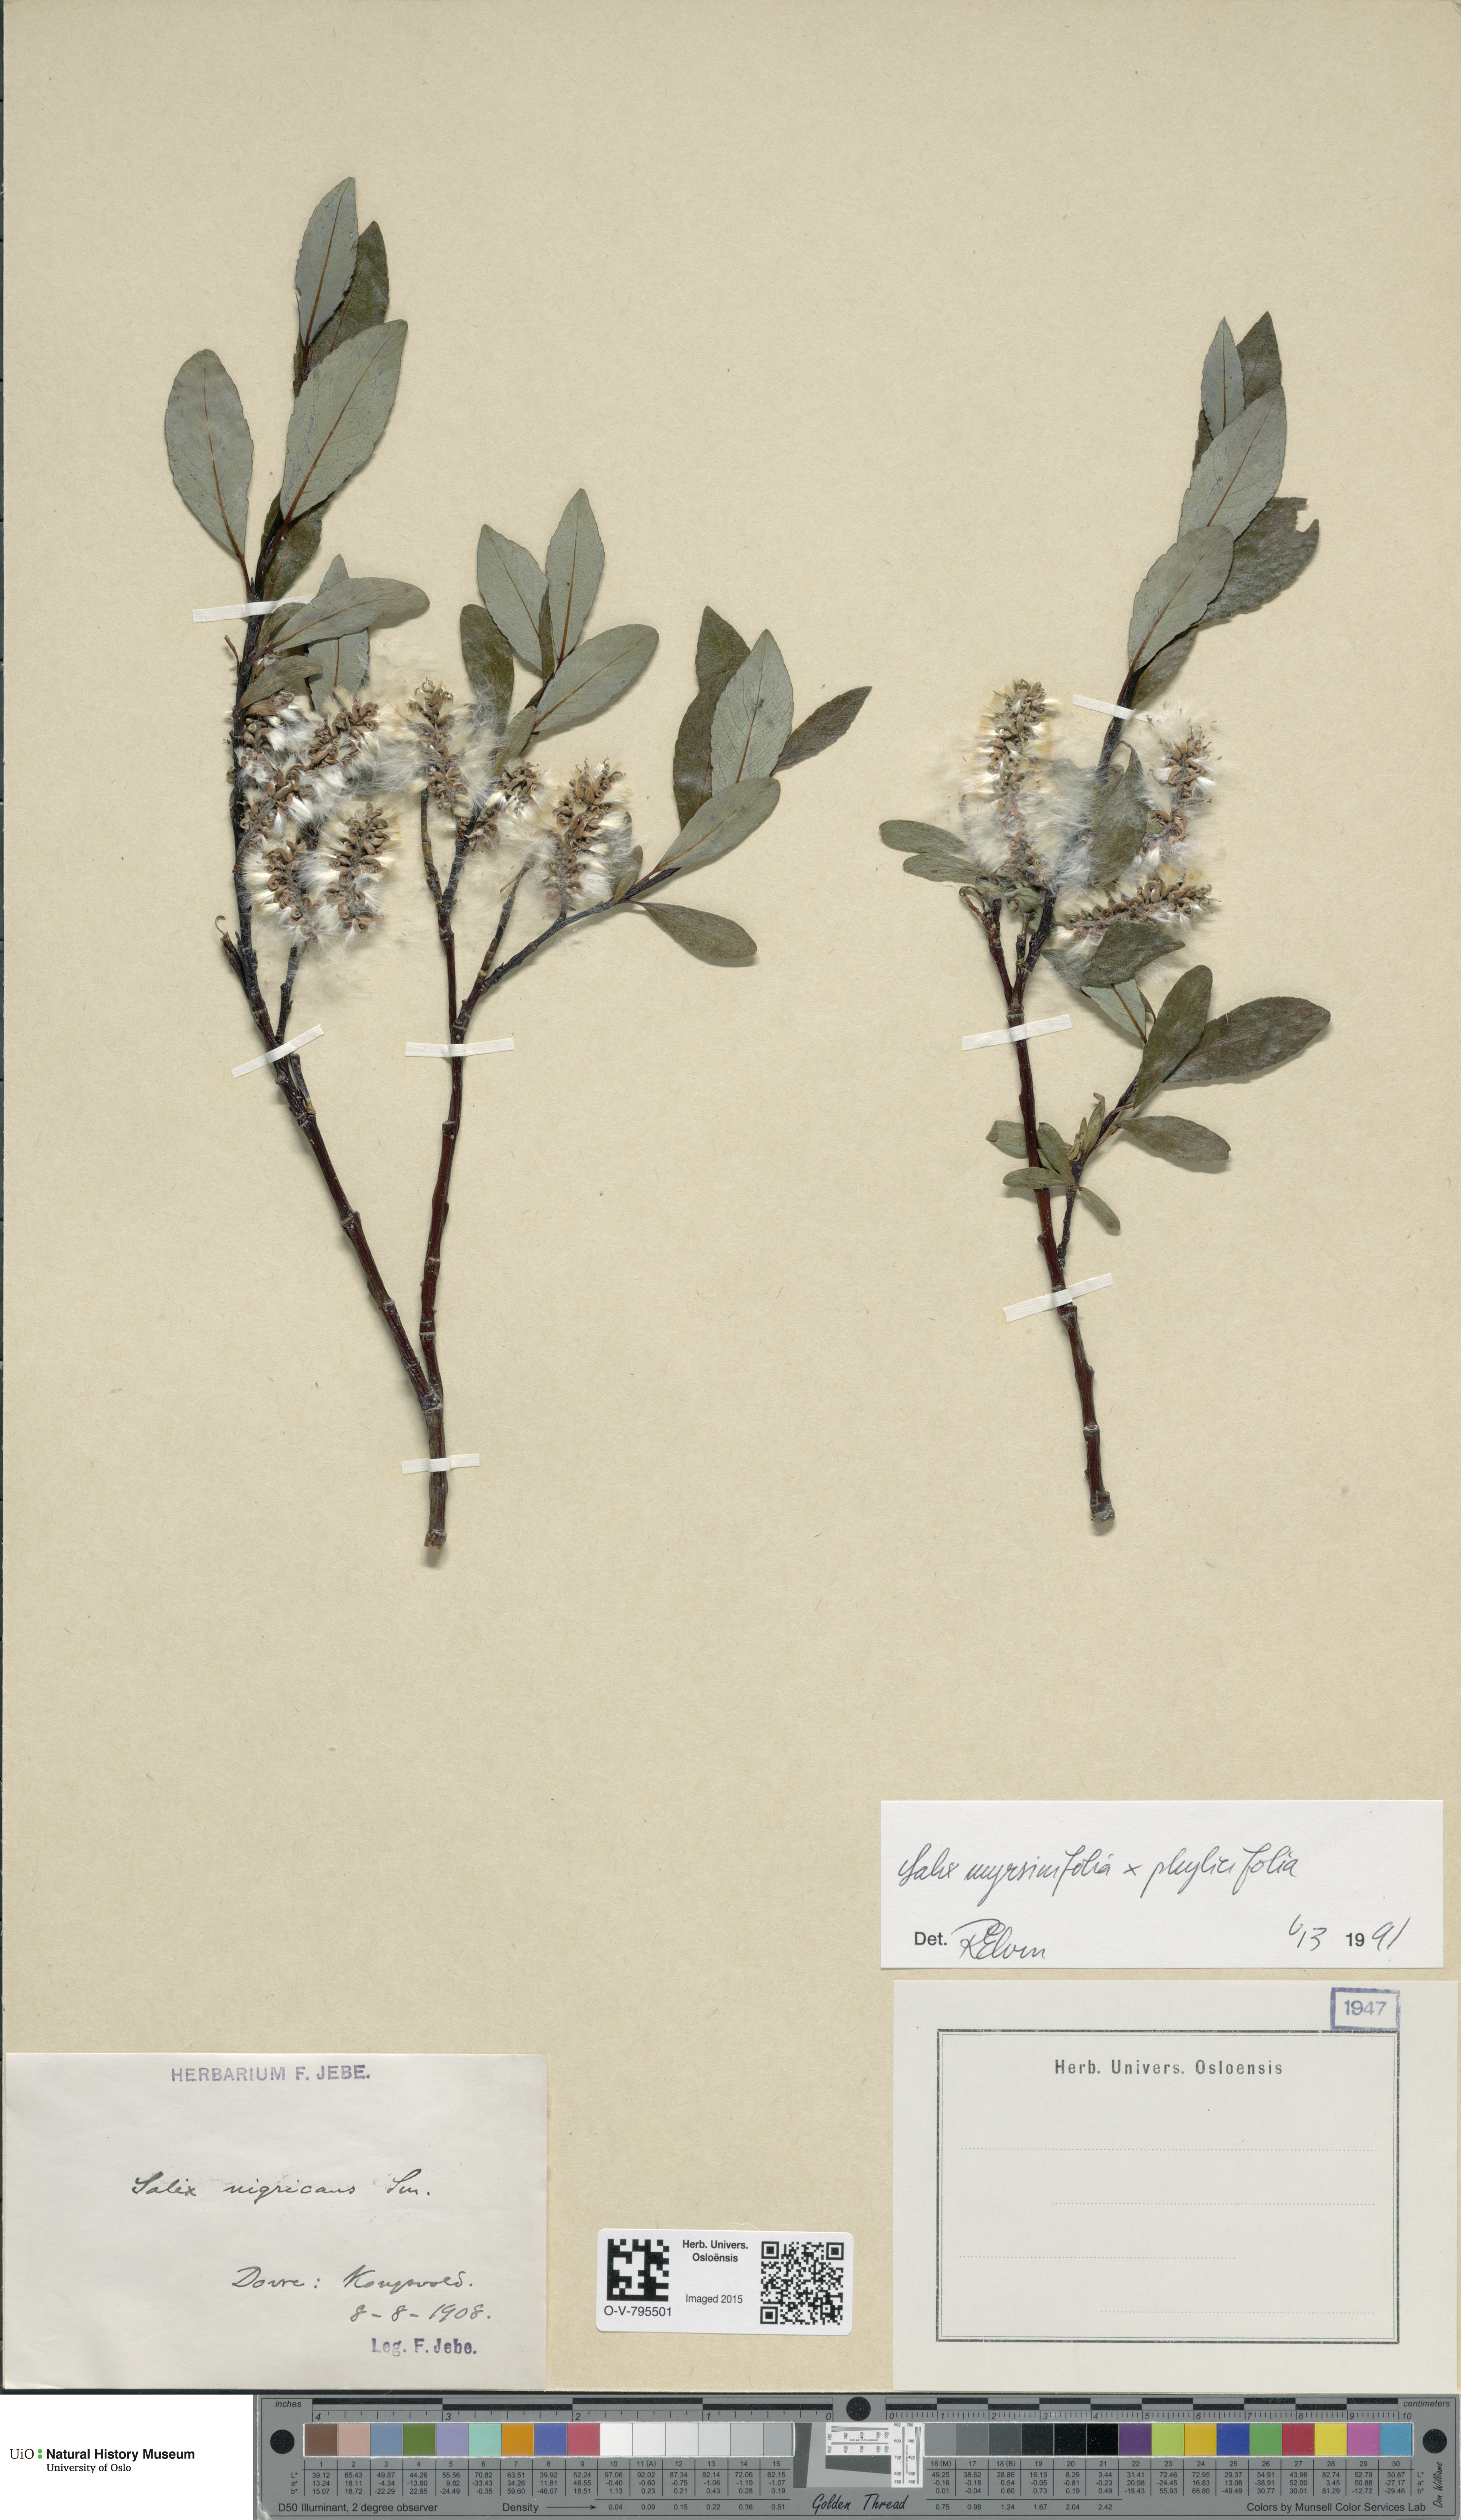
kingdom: Plantae
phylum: Tracheophyta
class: Magnoliopsida
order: Malpighiales
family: Salicaceae
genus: Salix
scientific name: Salix
